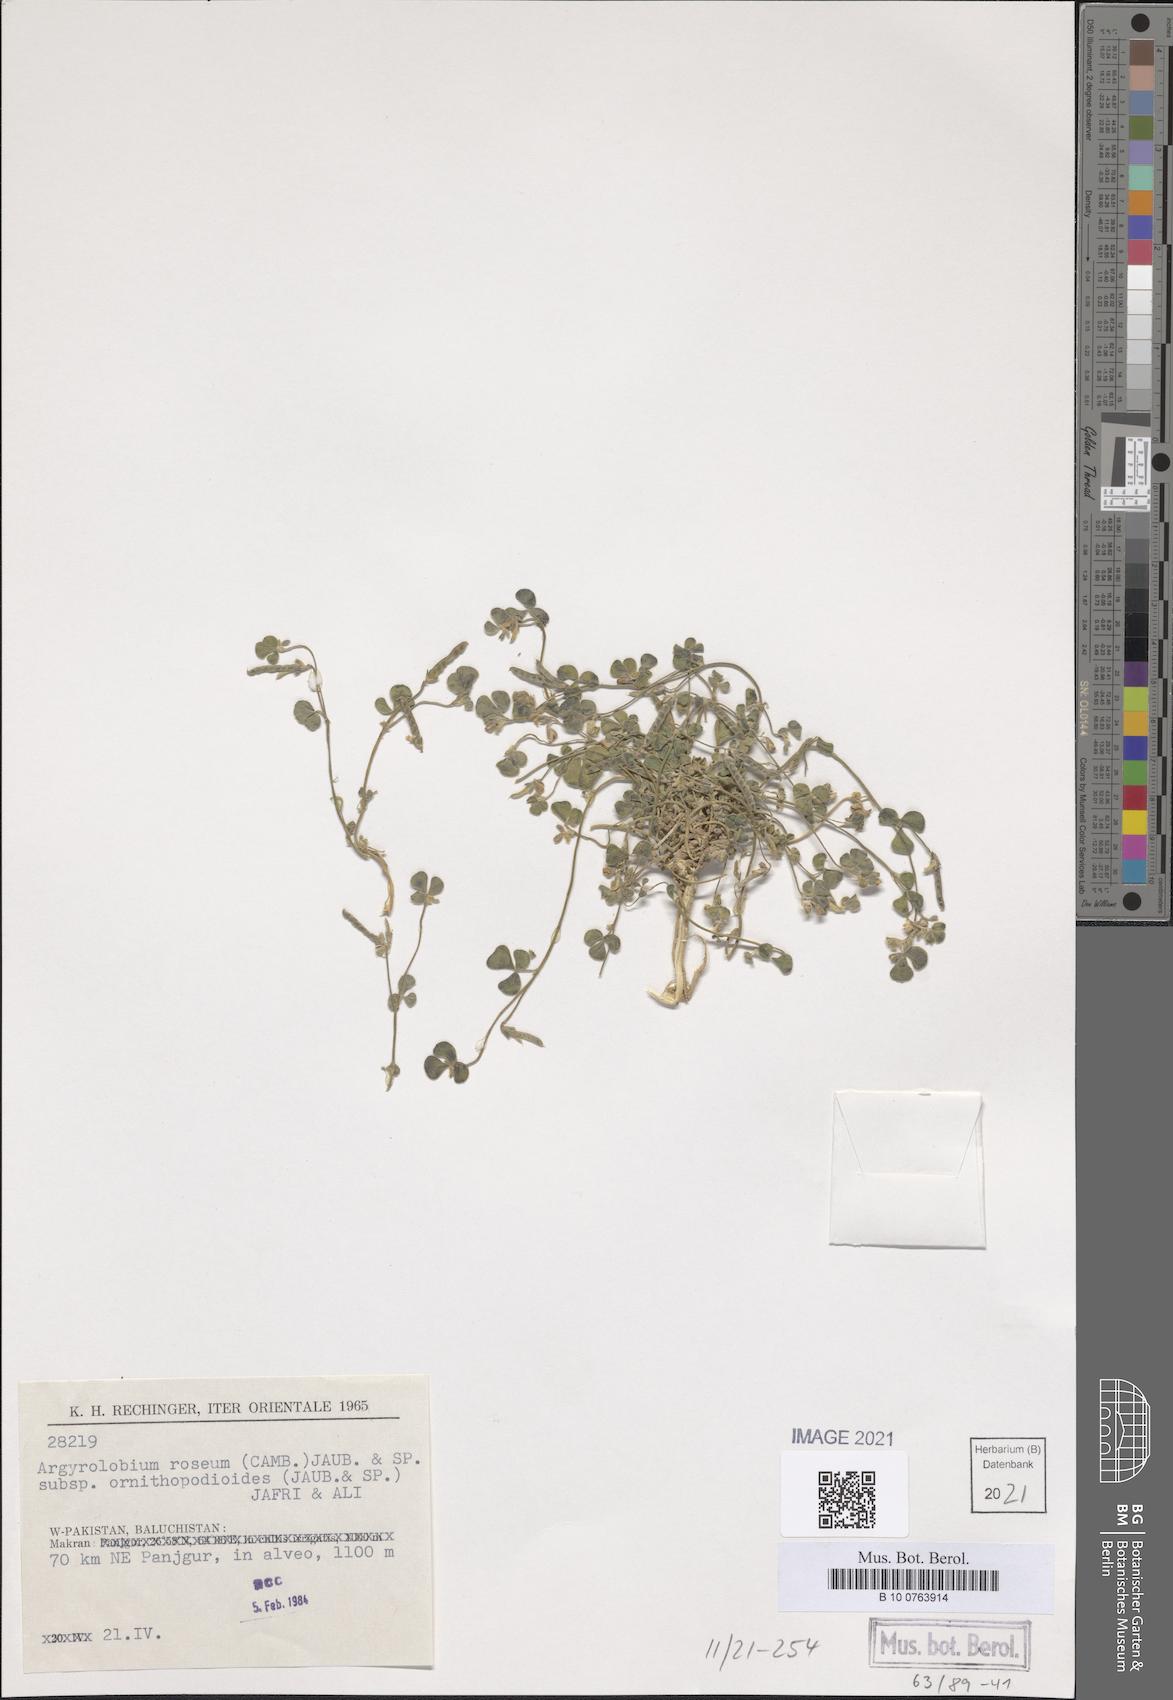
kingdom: Plantae
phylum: Tracheophyta
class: Magnoliopsida
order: Fabales
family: Fabaceae
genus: Argyrolobium
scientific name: Argyrolobium roseum
